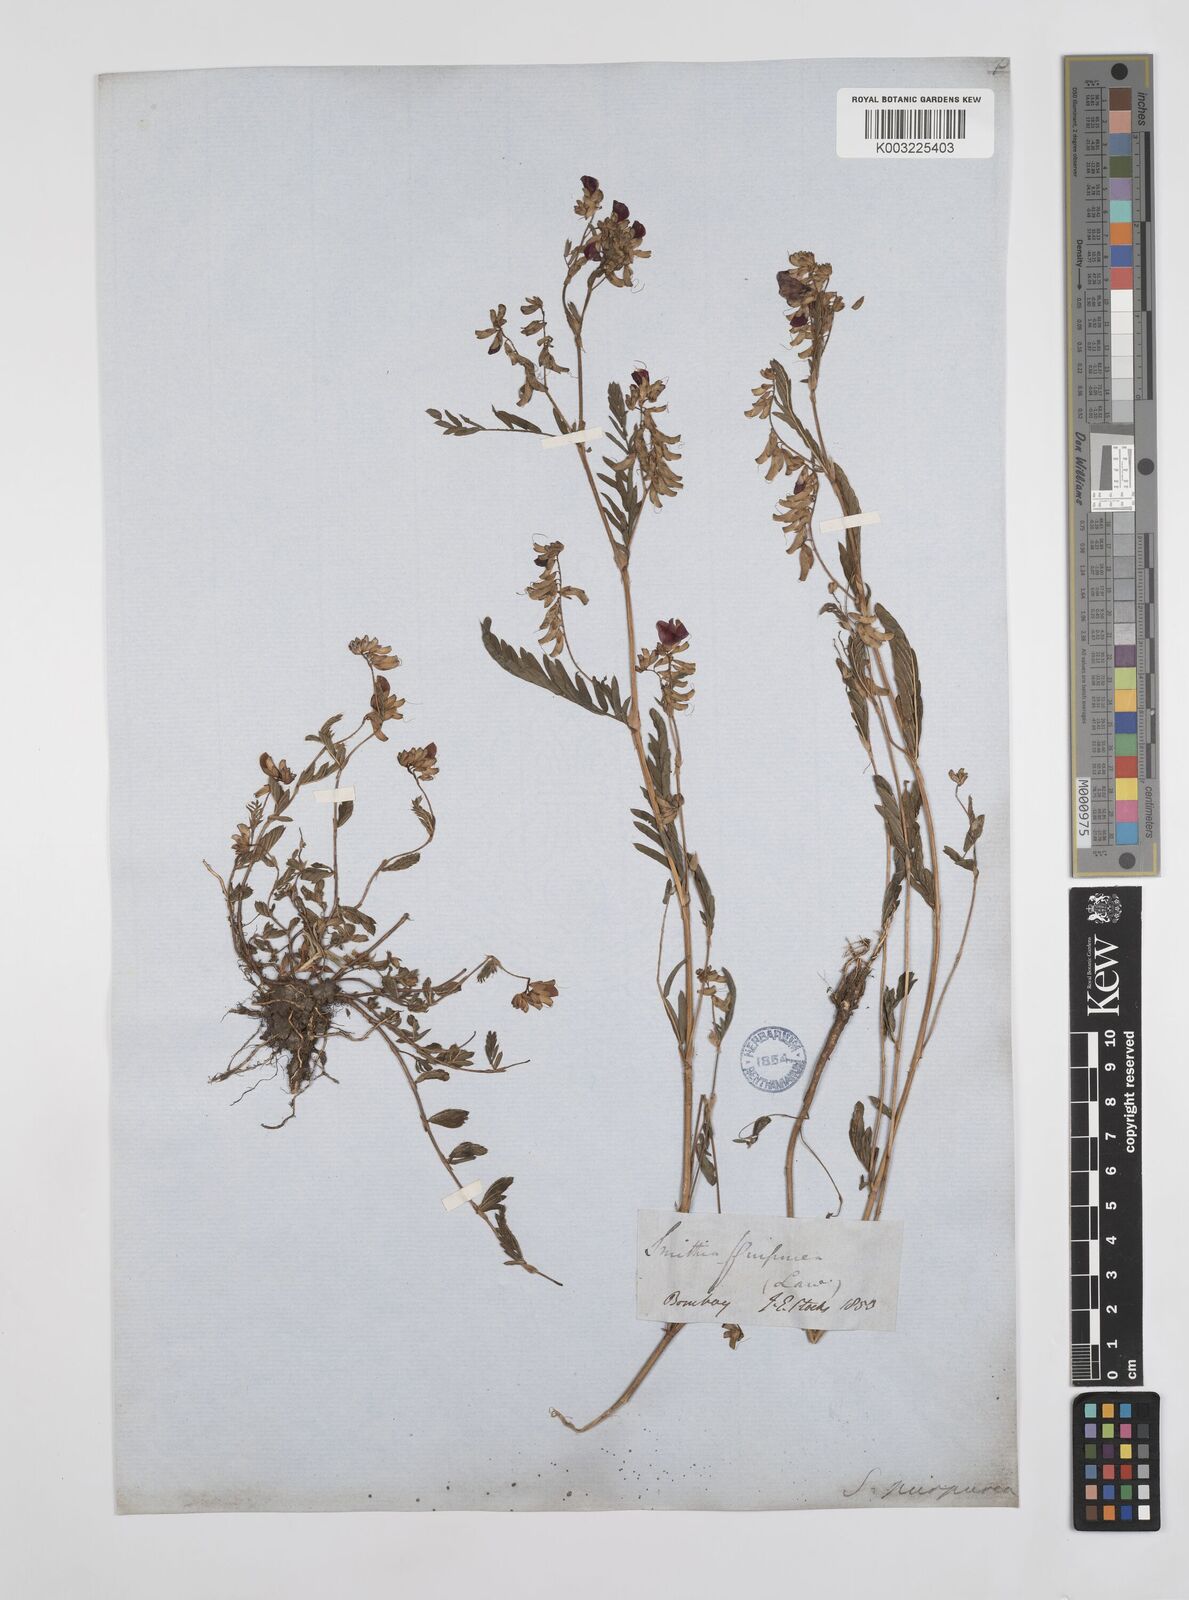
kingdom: Plantae
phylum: Tracheophyta
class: Magnoliopsida
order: Fabales
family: Fabaceae
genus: Smithia
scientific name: Smithia purpurea
